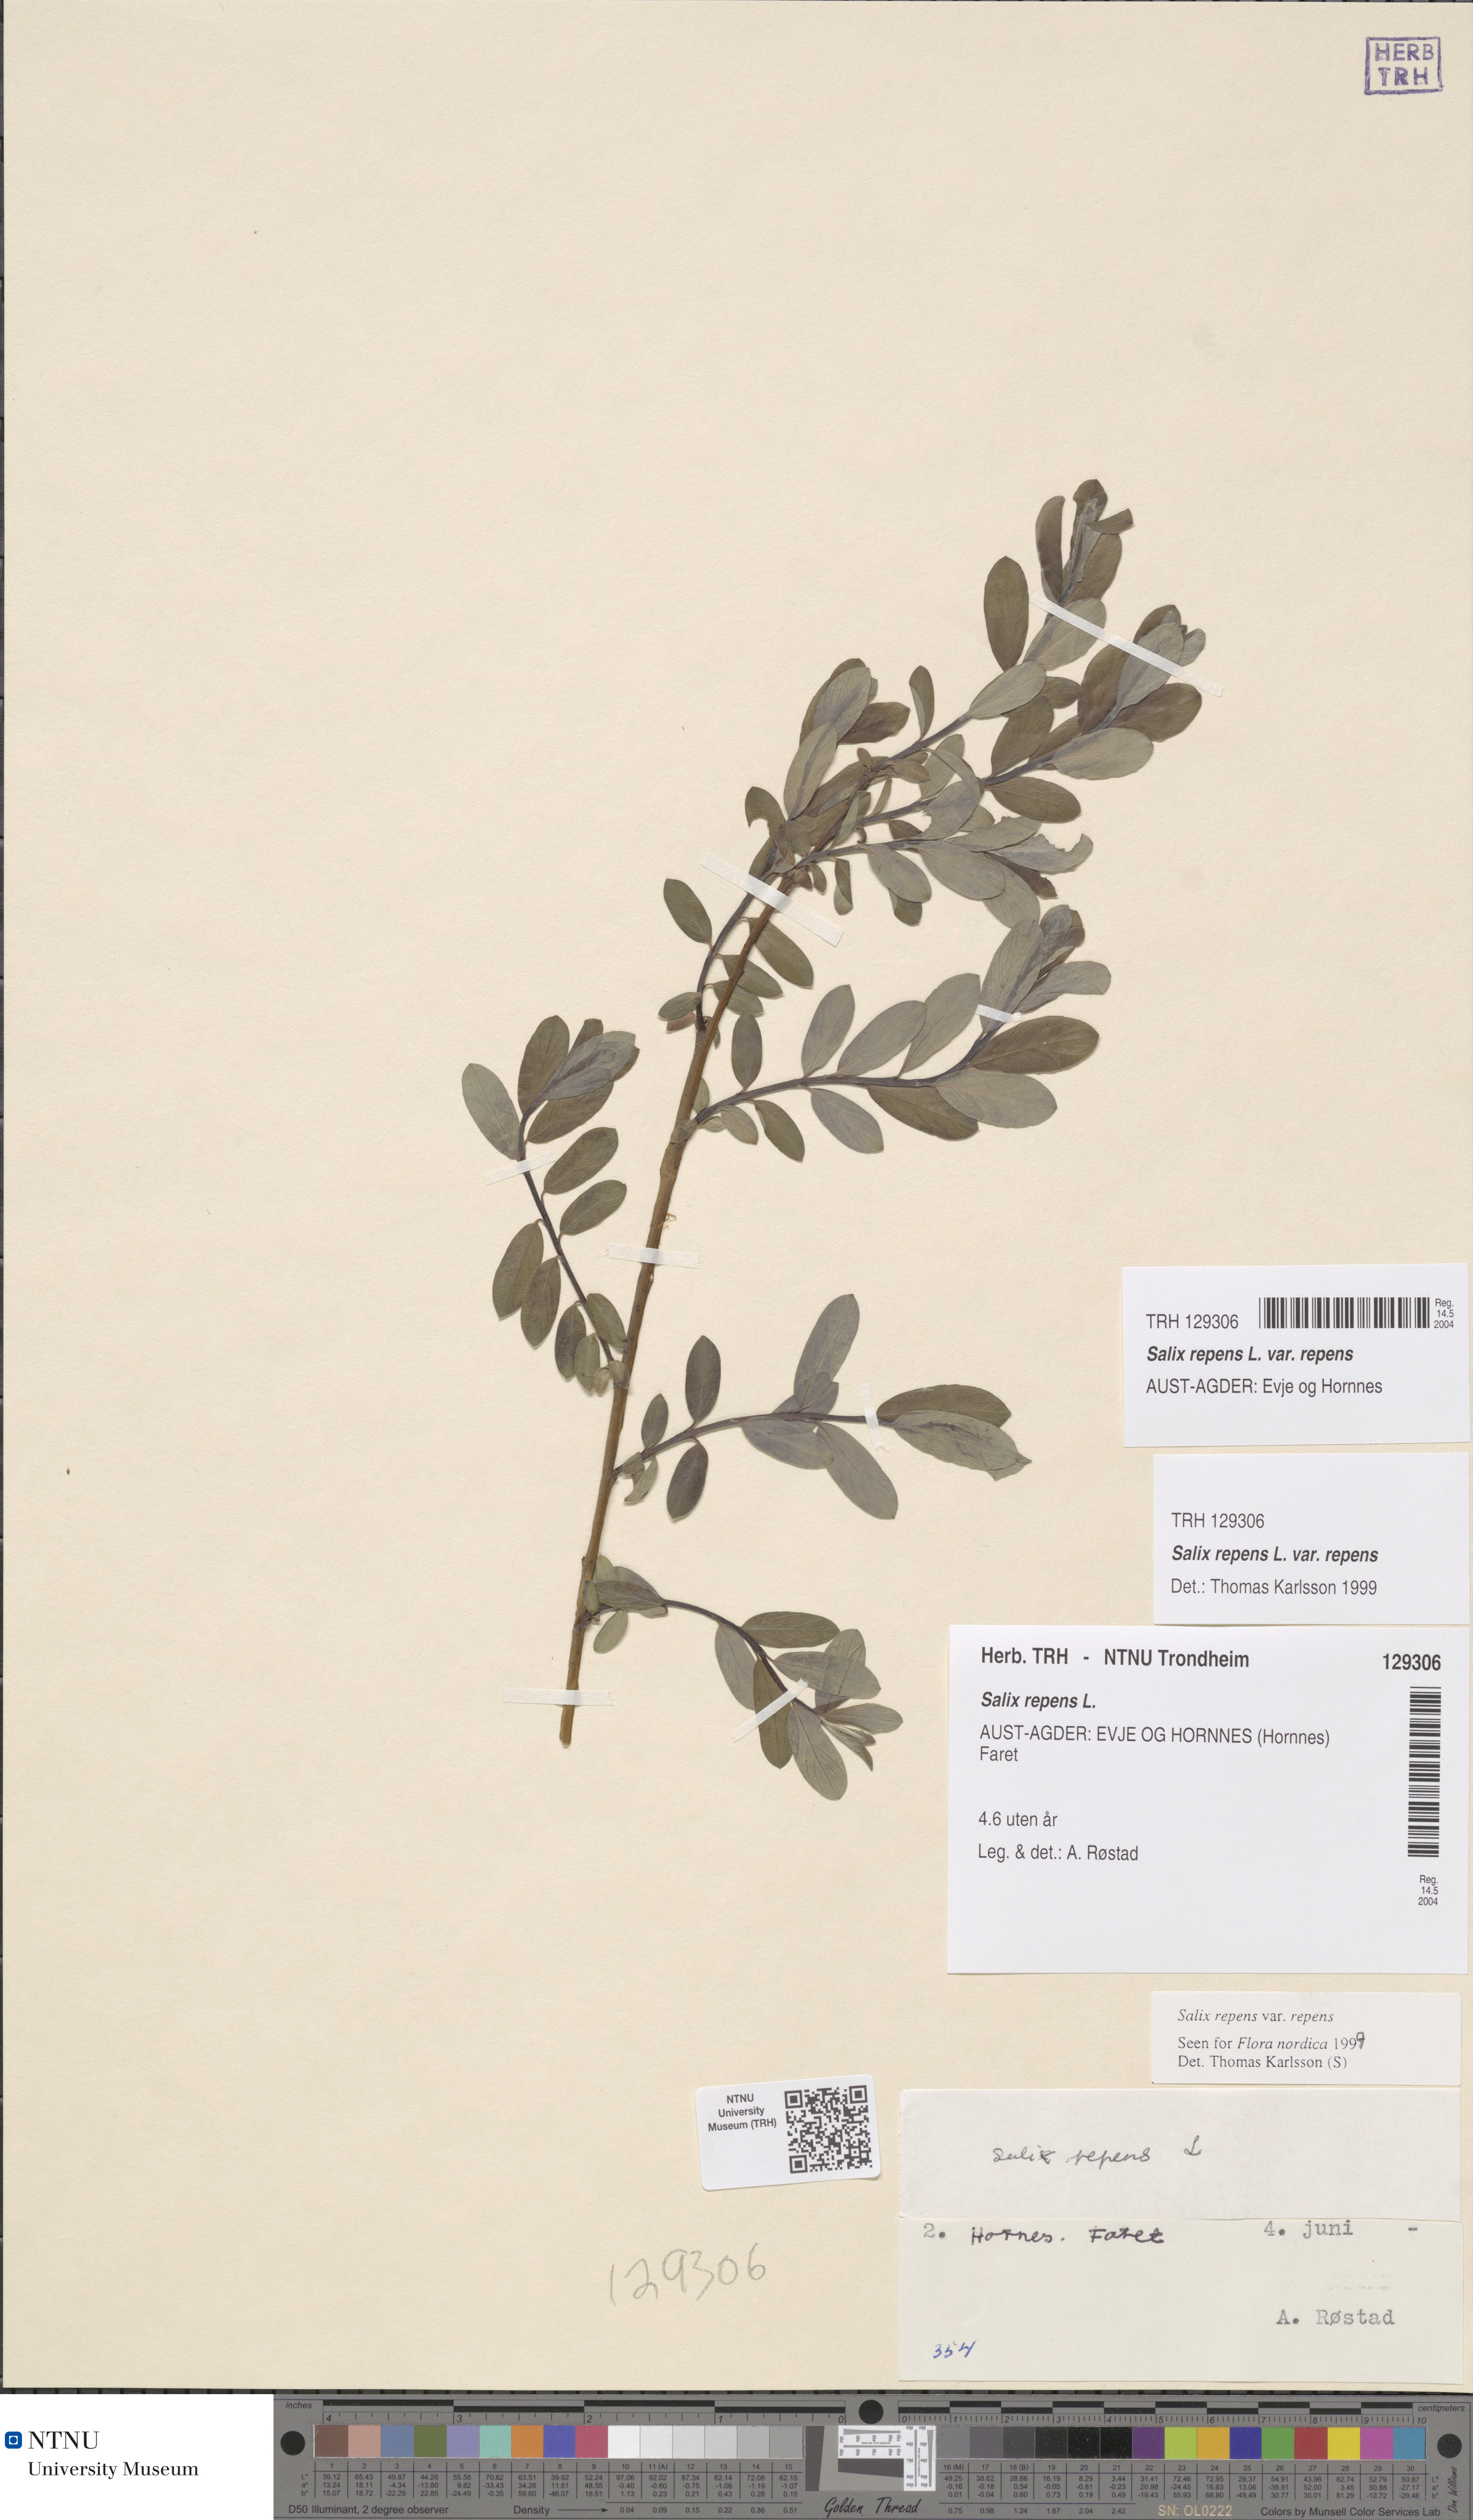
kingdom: Plantae
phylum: Tracheophyta
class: Magnoliopsida
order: Malpighiales
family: Salicaceae
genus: Salix
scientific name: Salix repens
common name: Creeping willow
